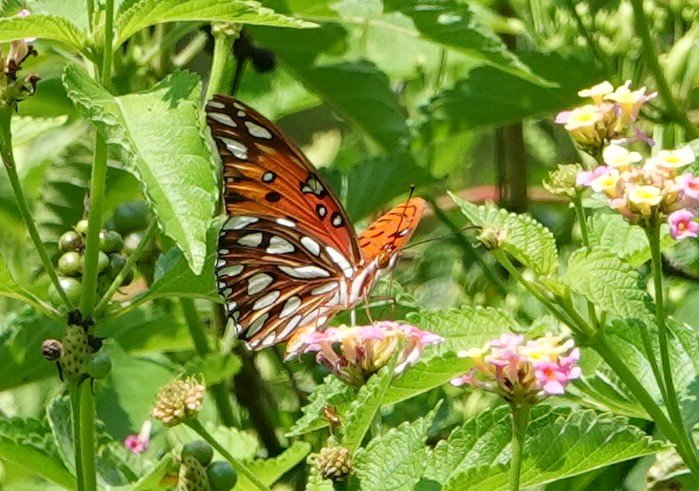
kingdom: Animalia
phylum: Arthropoda
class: Insecta
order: Lepidoptera
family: Nymphalidae
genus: Dione
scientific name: Dione vanillae
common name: Gulf Fritillary
